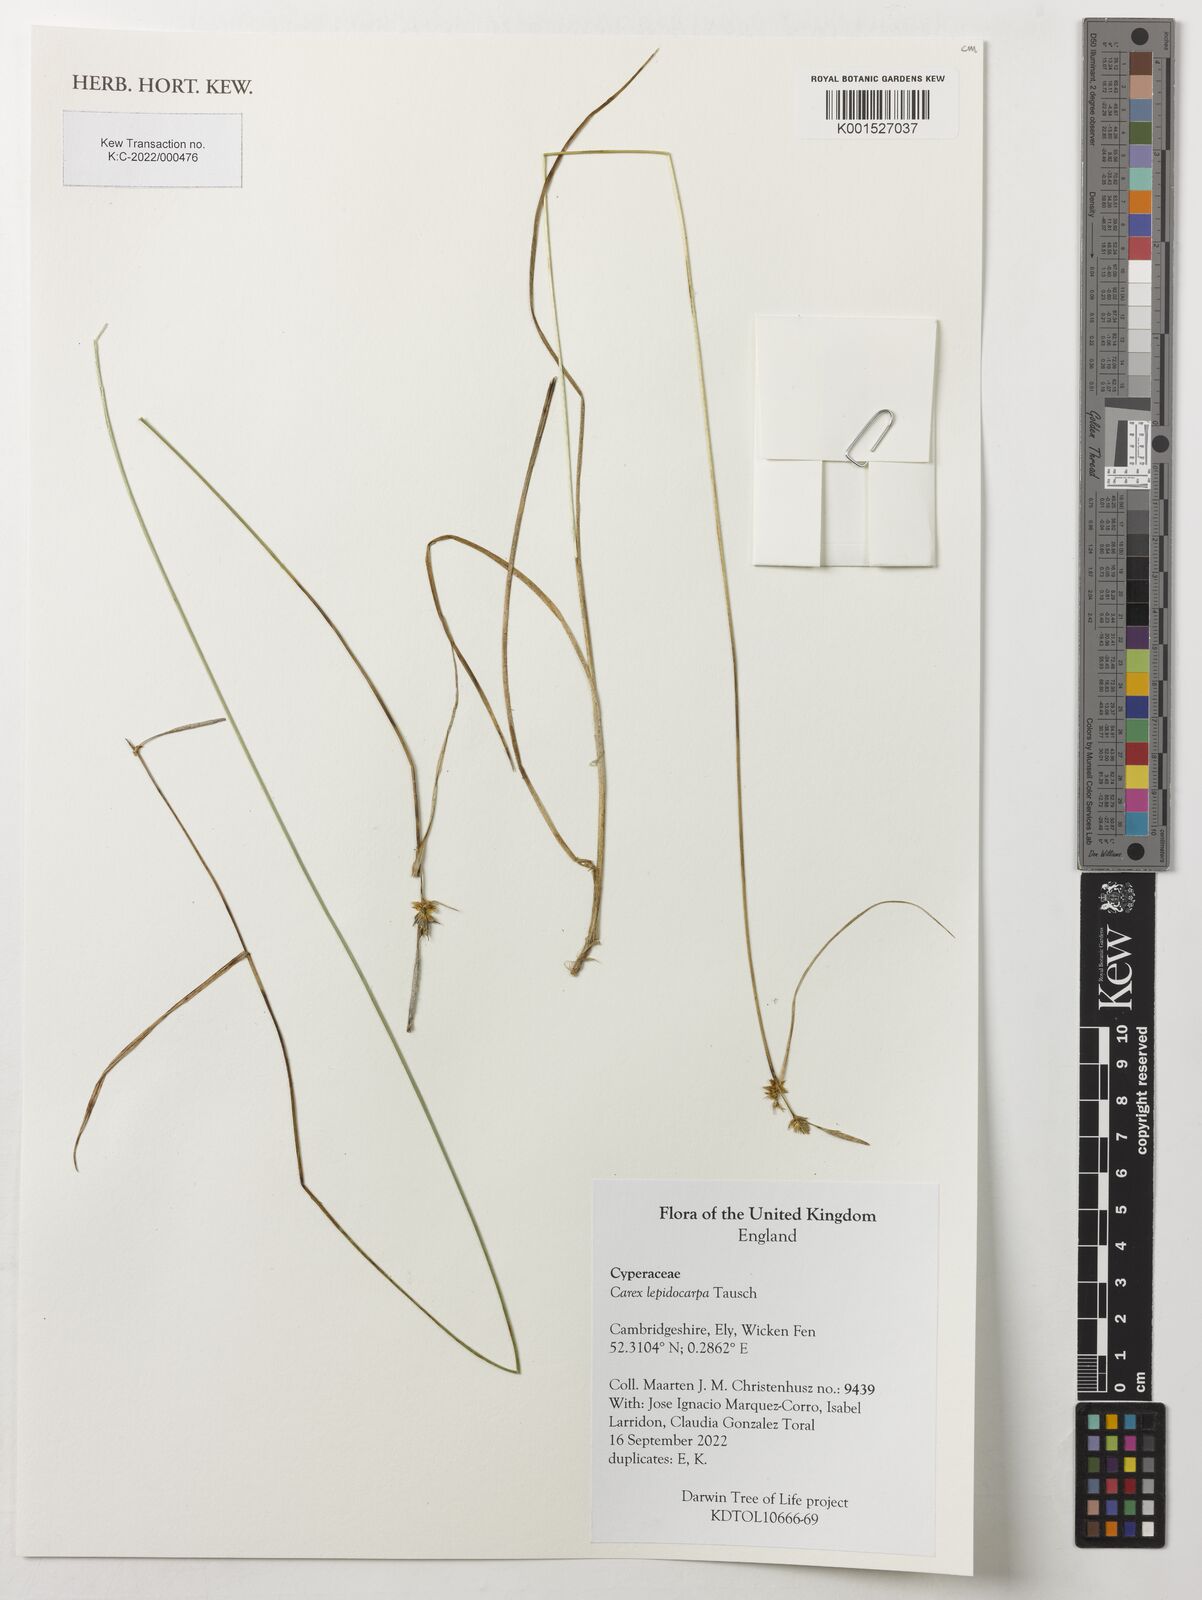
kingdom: Plantae
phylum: Tracheophyta
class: Liliopsida
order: Poales
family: Cyperaceae
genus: Carex
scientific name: Carex lepidocarpa
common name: Long-stalked yellow-sedge
